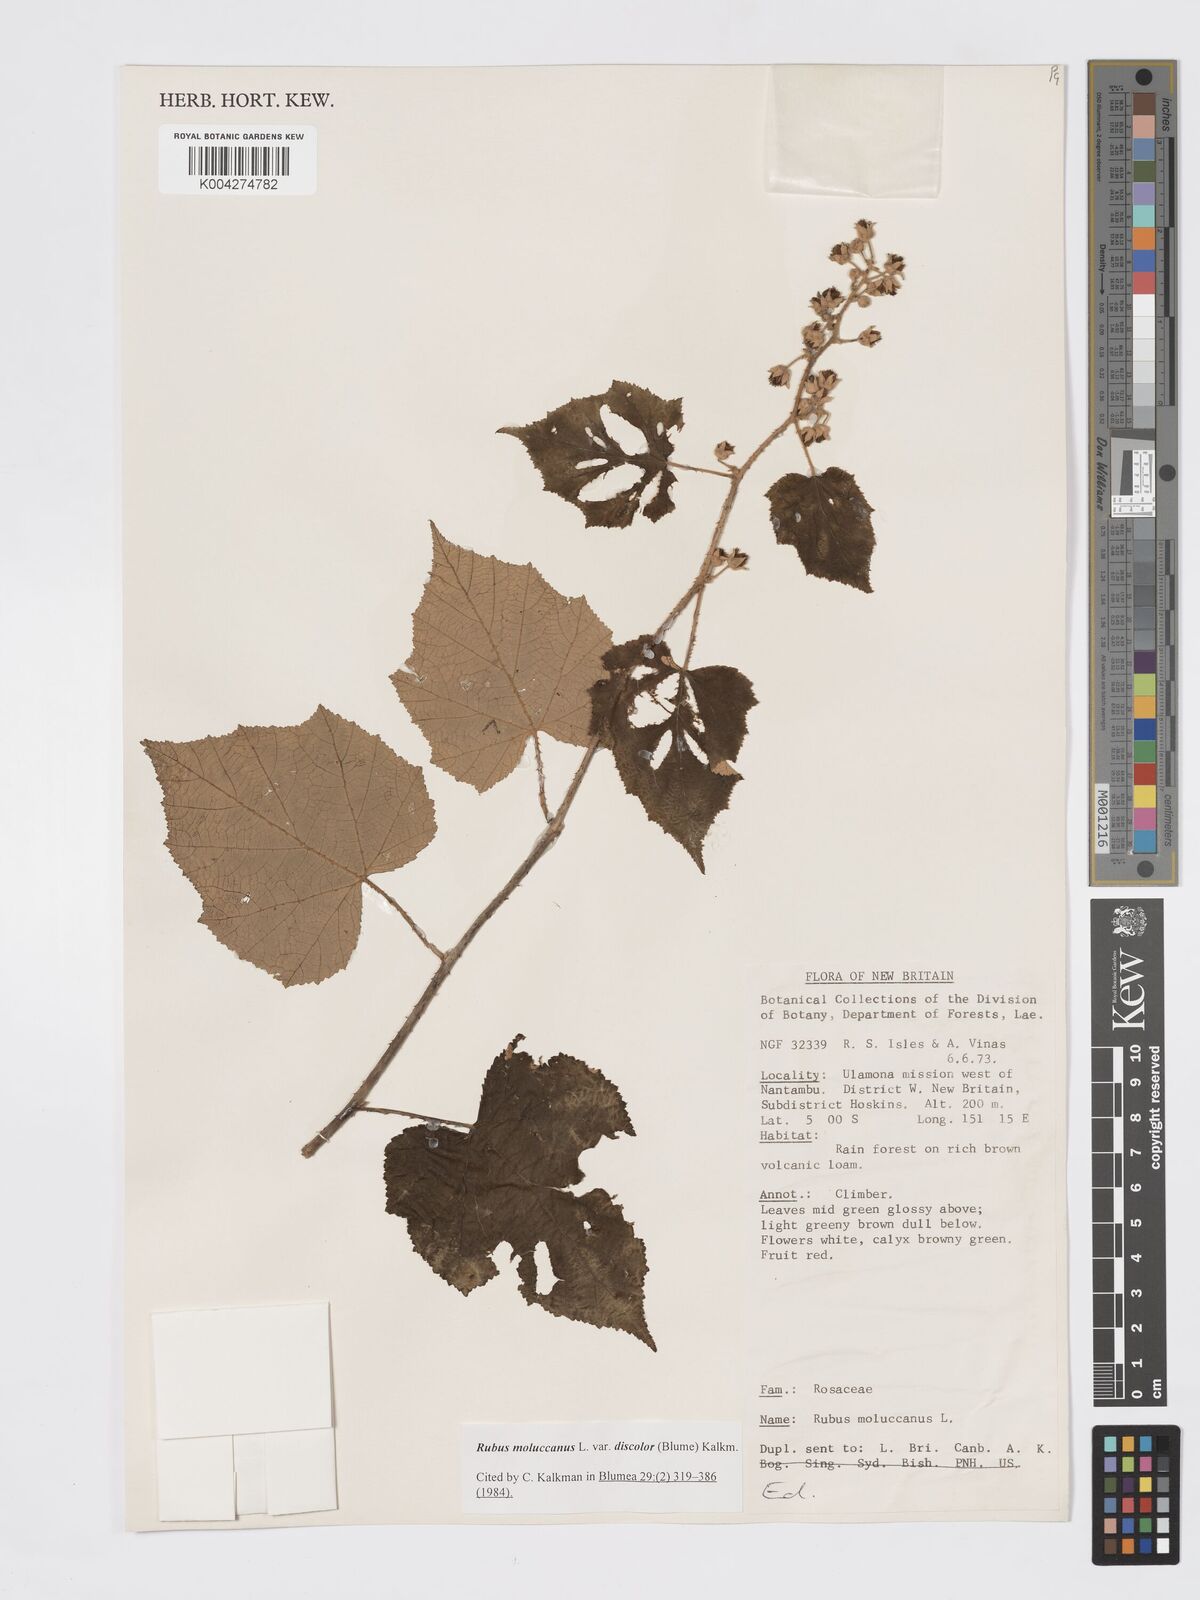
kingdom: Plantae
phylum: Tracheophyta
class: Magnoliopsida
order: Rosales
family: Rosaceae
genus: Rubus
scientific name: Rubus moluccanus
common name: Wild raspberry
